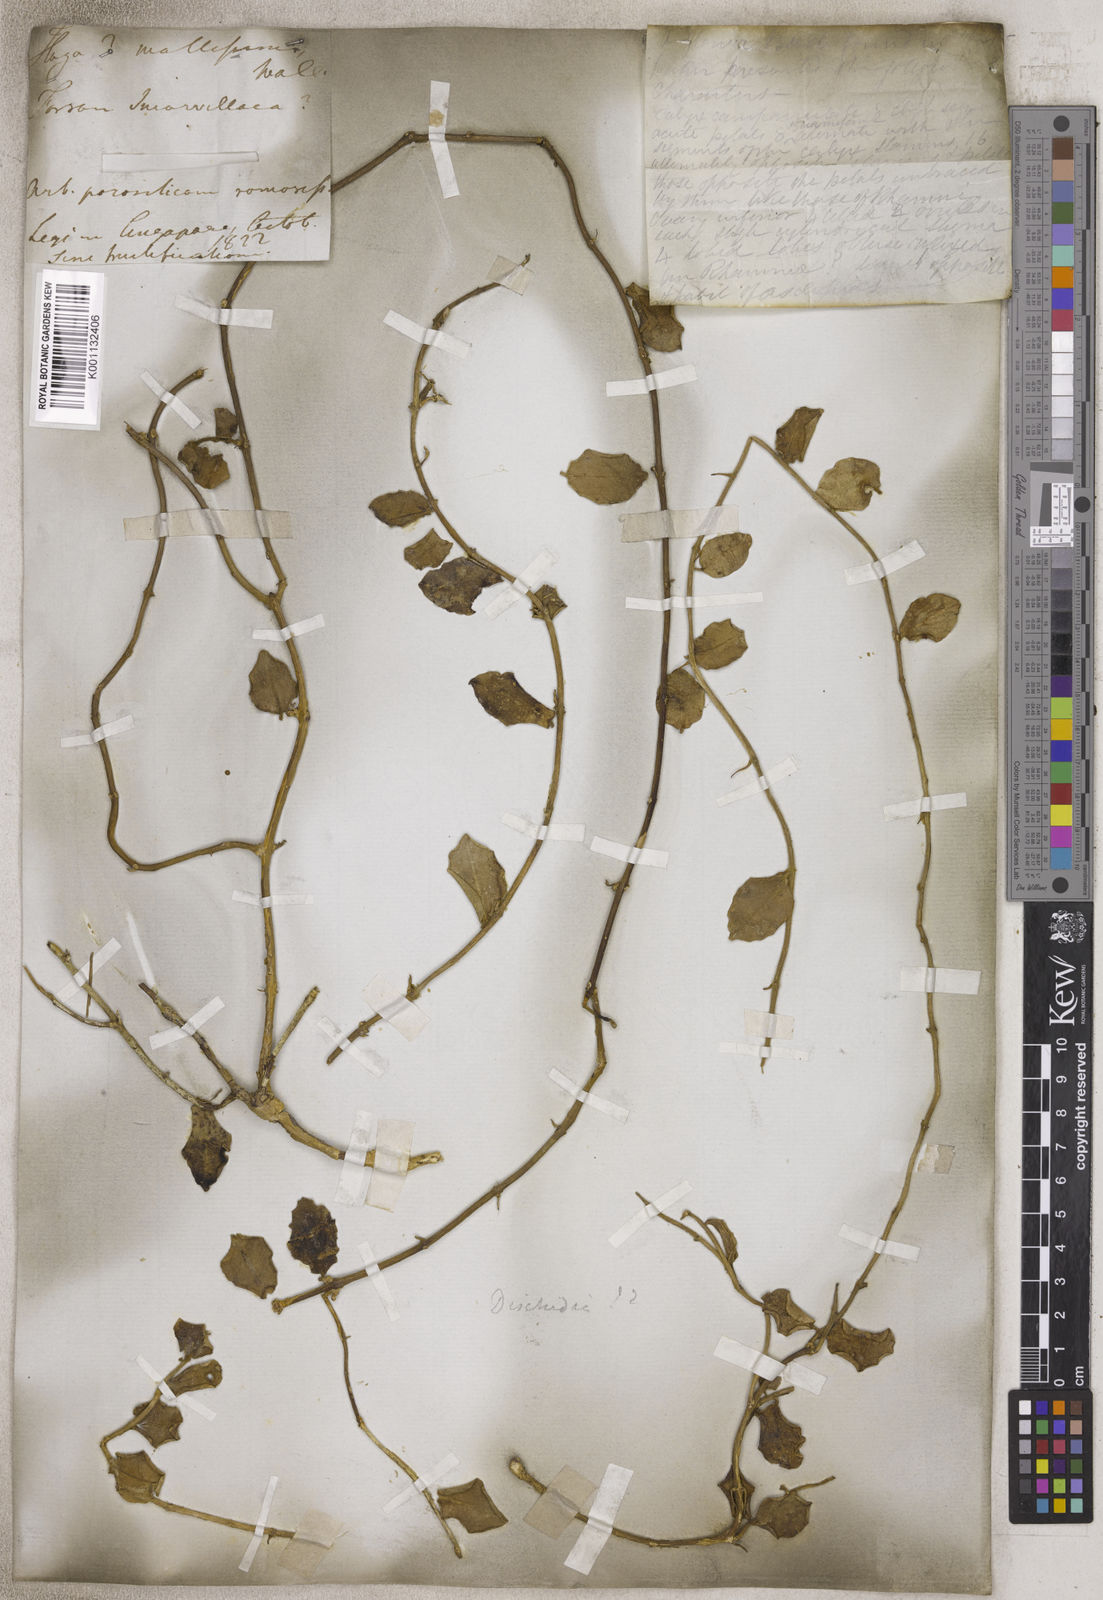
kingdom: Plantae
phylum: Tracheophyta
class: Magnoliopsida
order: Gentianales
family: Apocynaceae
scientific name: Apocynaceae
